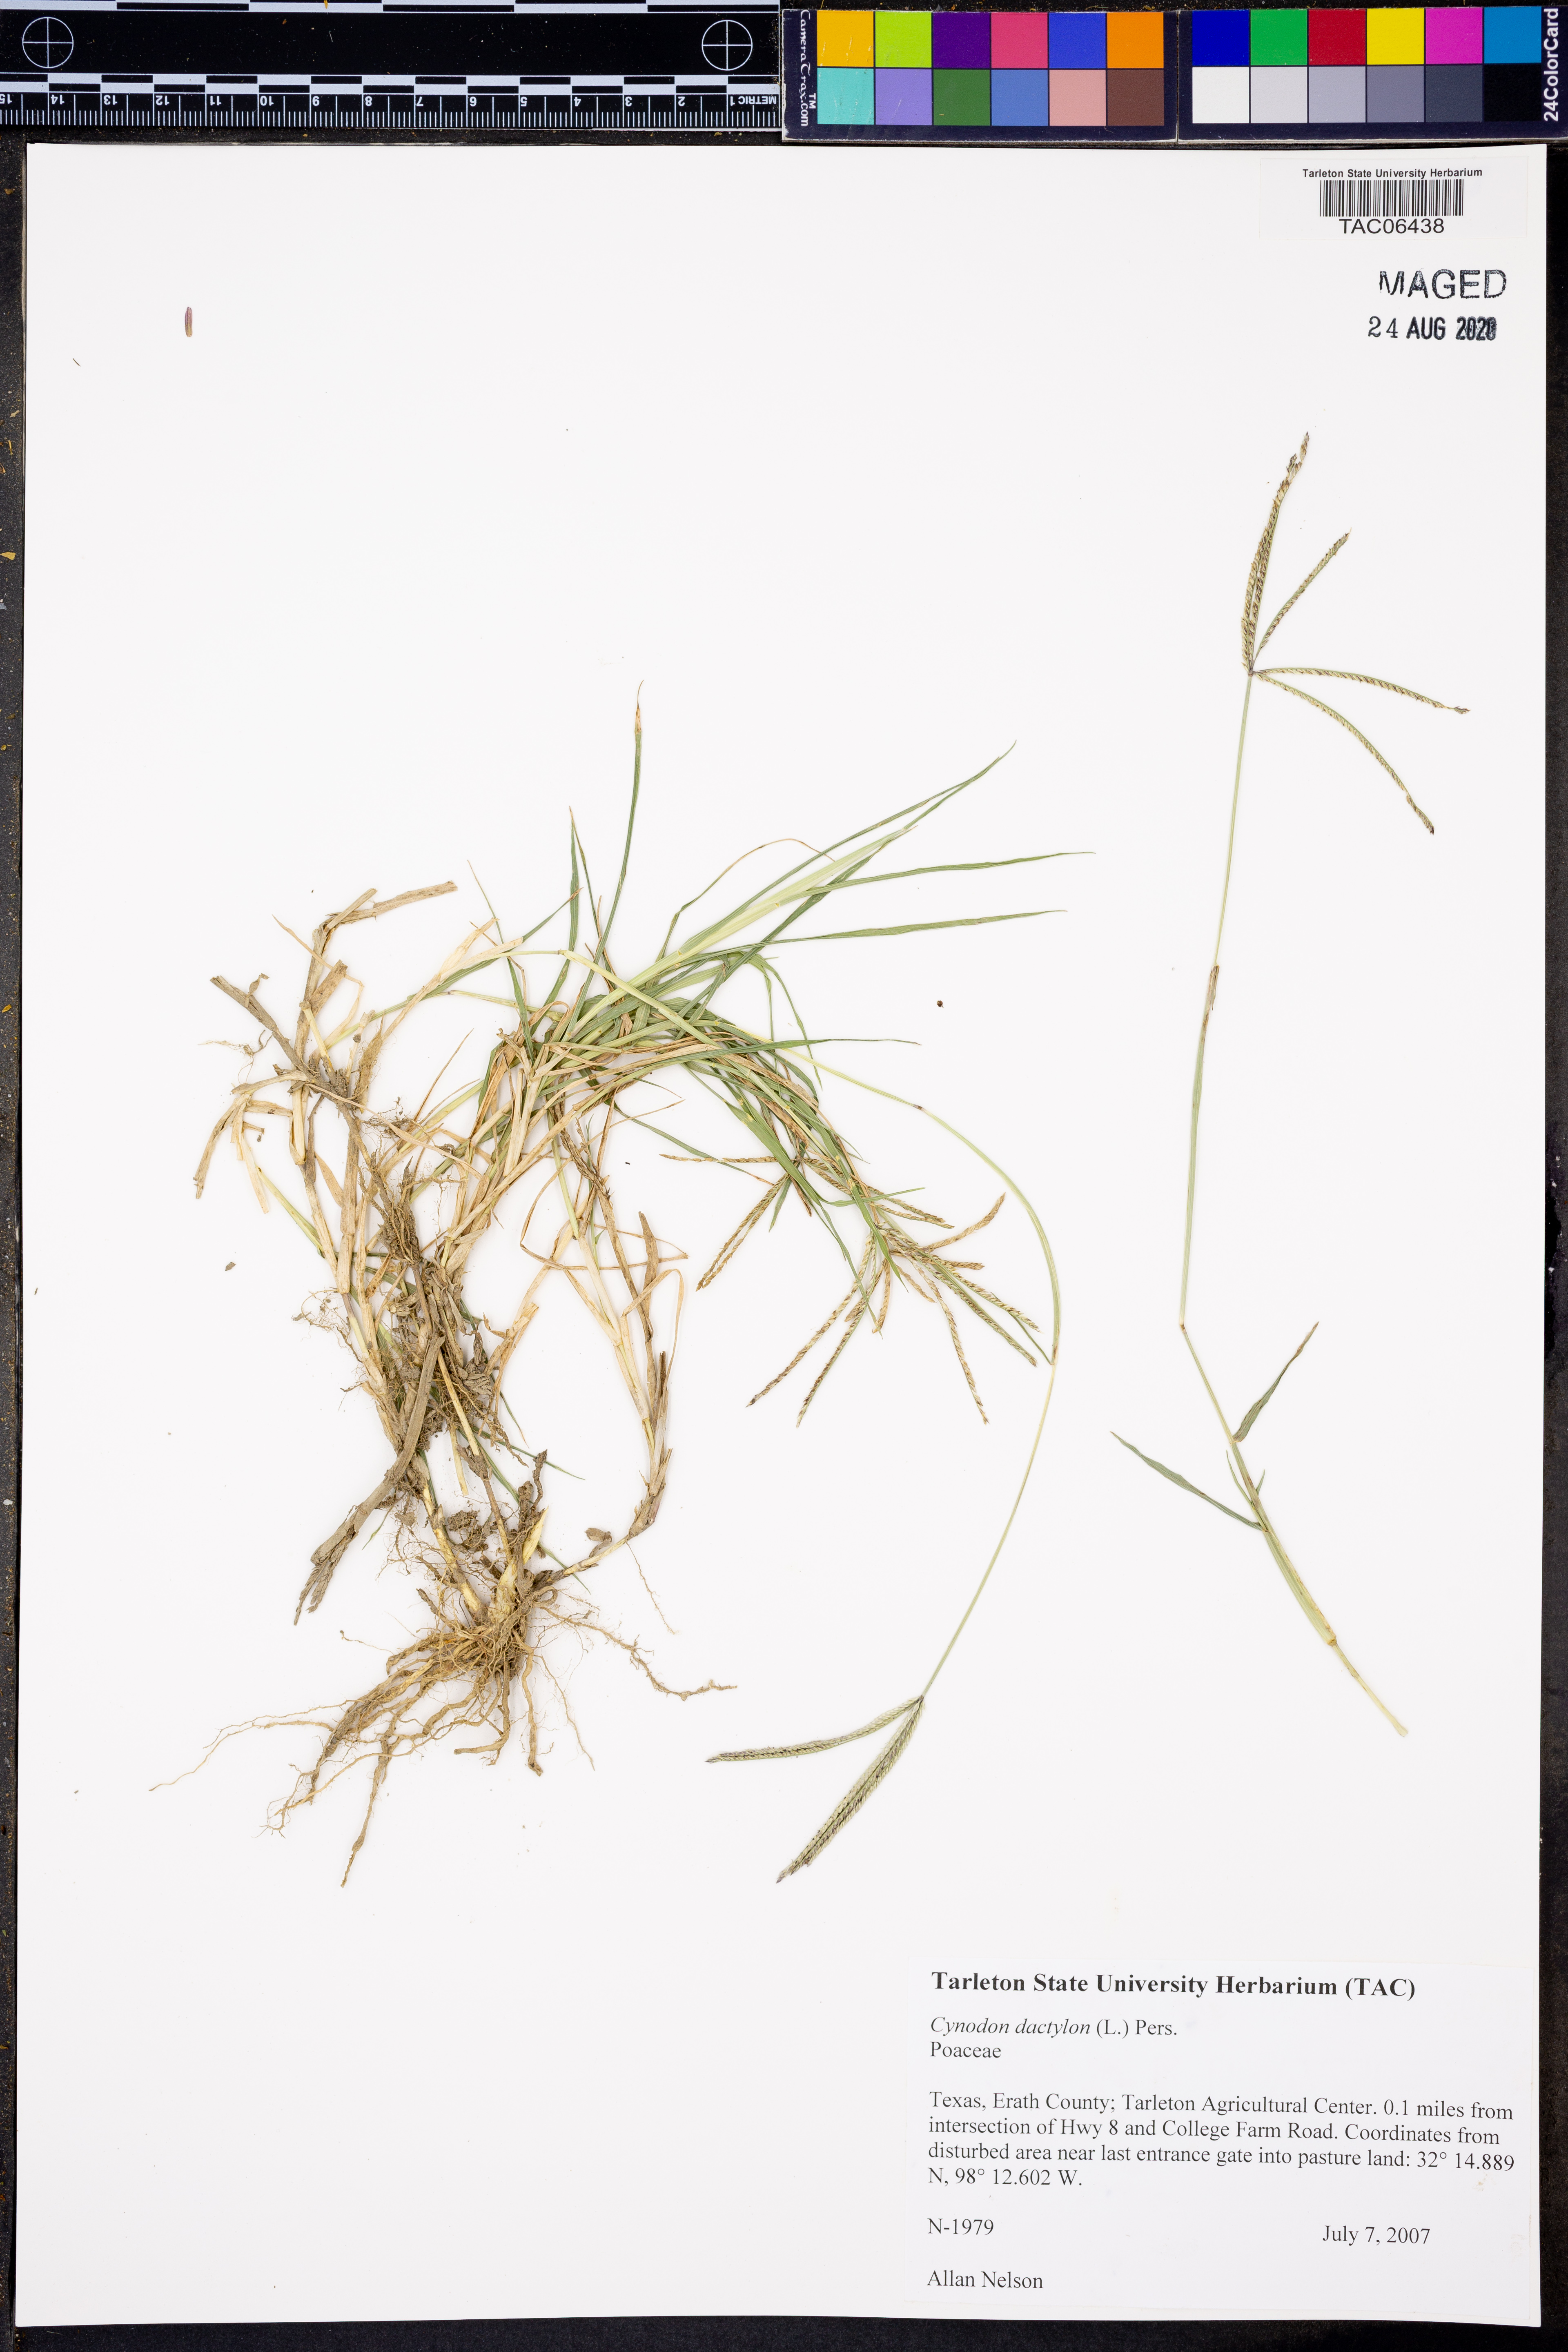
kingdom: Plantae
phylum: Tracheophyta
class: Liliopsida
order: Poales
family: Poaceae
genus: Cynodon
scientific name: Cynodon dactylon
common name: Bermuda grass
